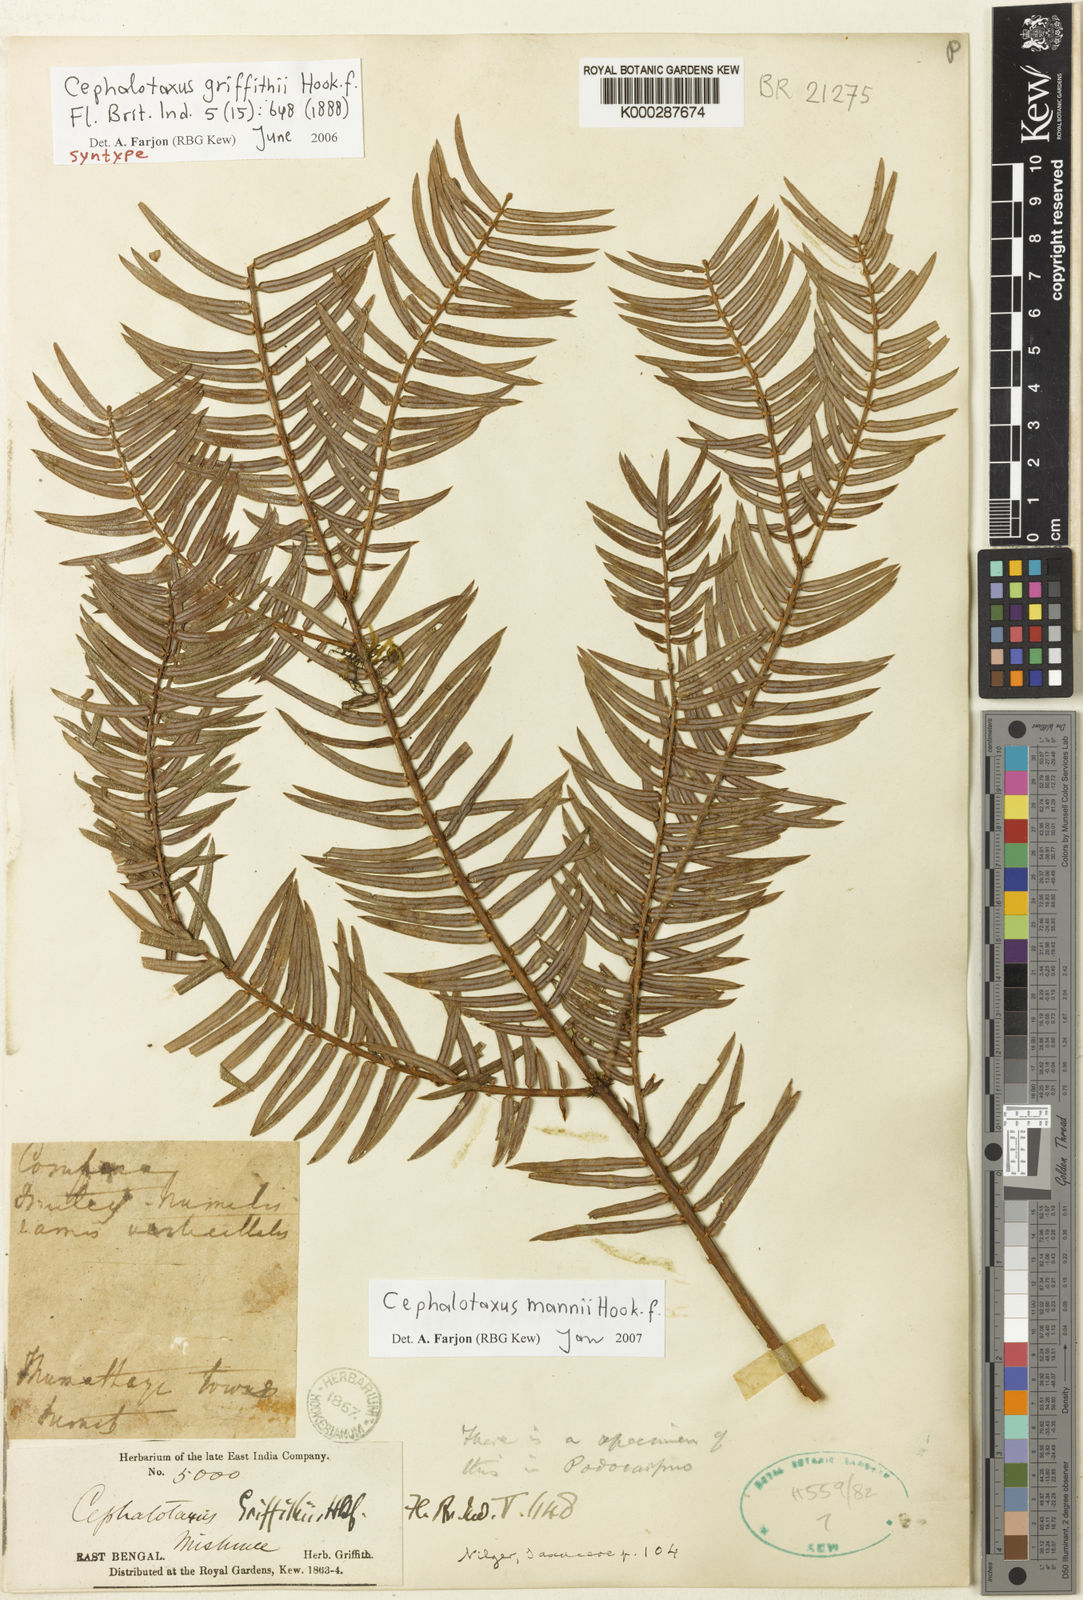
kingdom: Plantae
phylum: Tracheophyta
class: Pinopsida
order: Pinales
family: Cephalotaxaceae
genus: Cephalotaxus
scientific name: Cephalotaxus mannii
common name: Mann's yew plum
